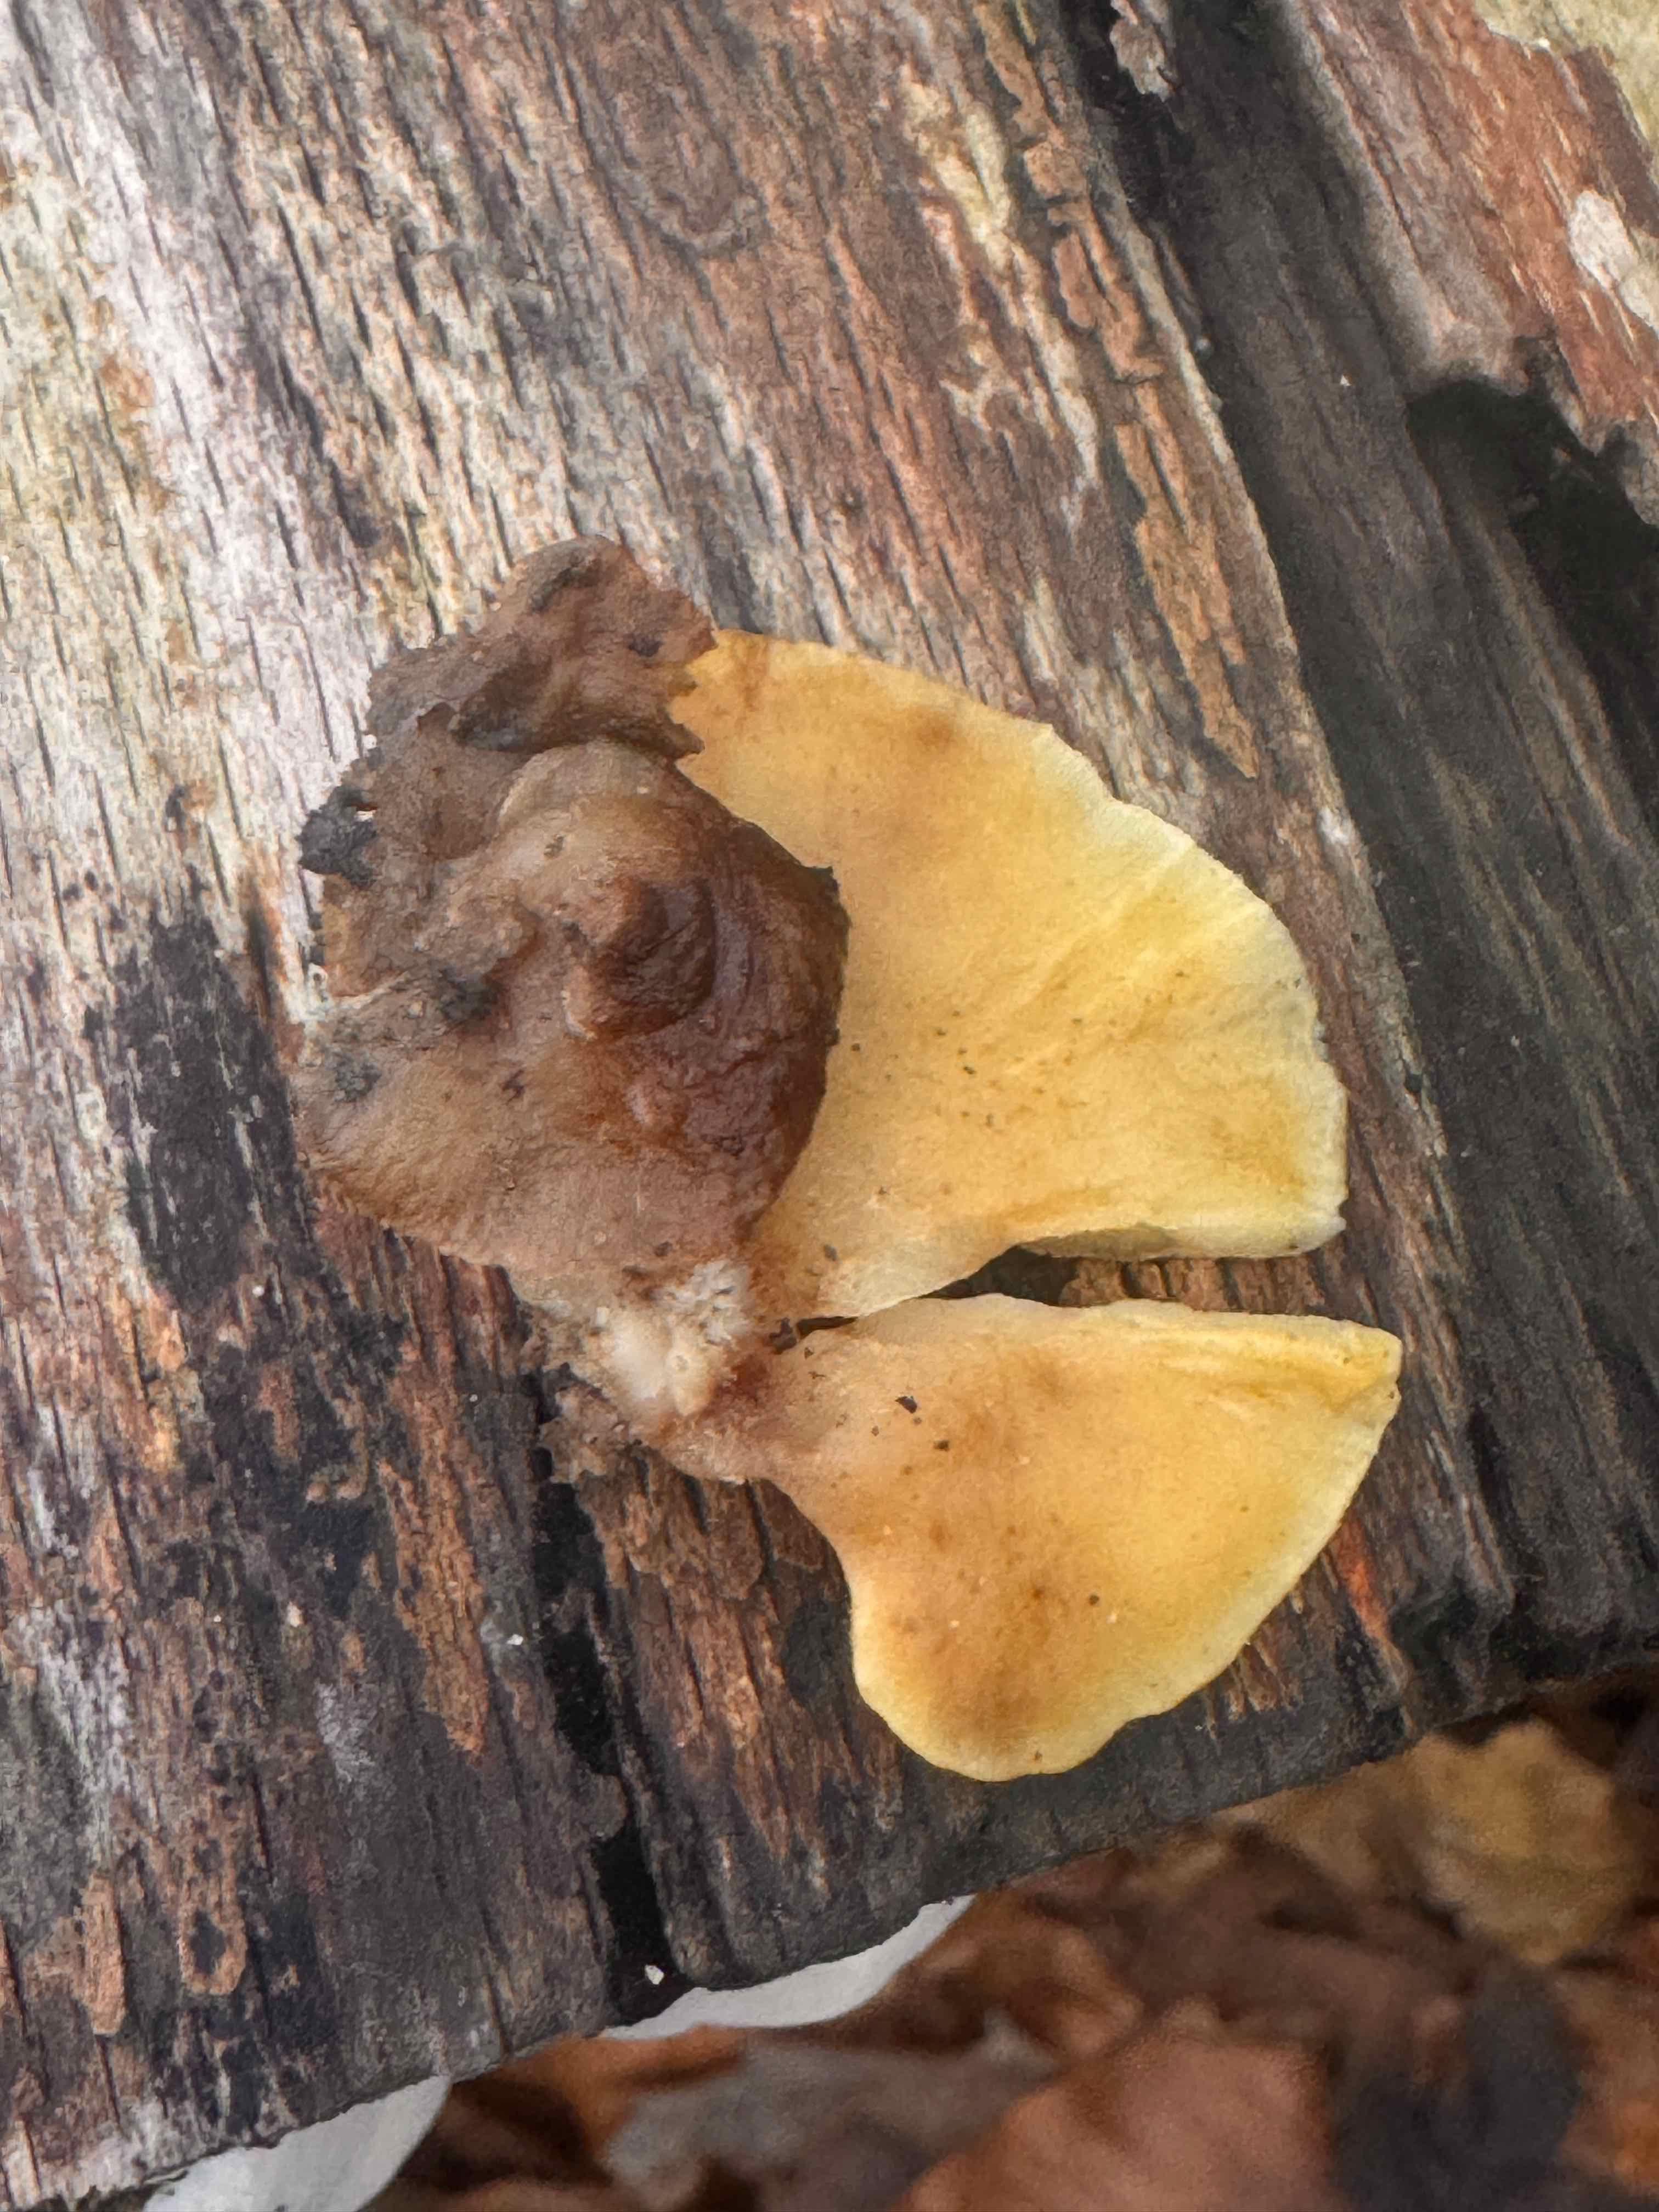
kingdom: Fungi
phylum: Basidiomycota
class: Agaricomycetes
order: Agaricales
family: Crepidotaceae
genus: Crepidotus
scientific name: Crepidotus mollis
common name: blød muslingesvamp
